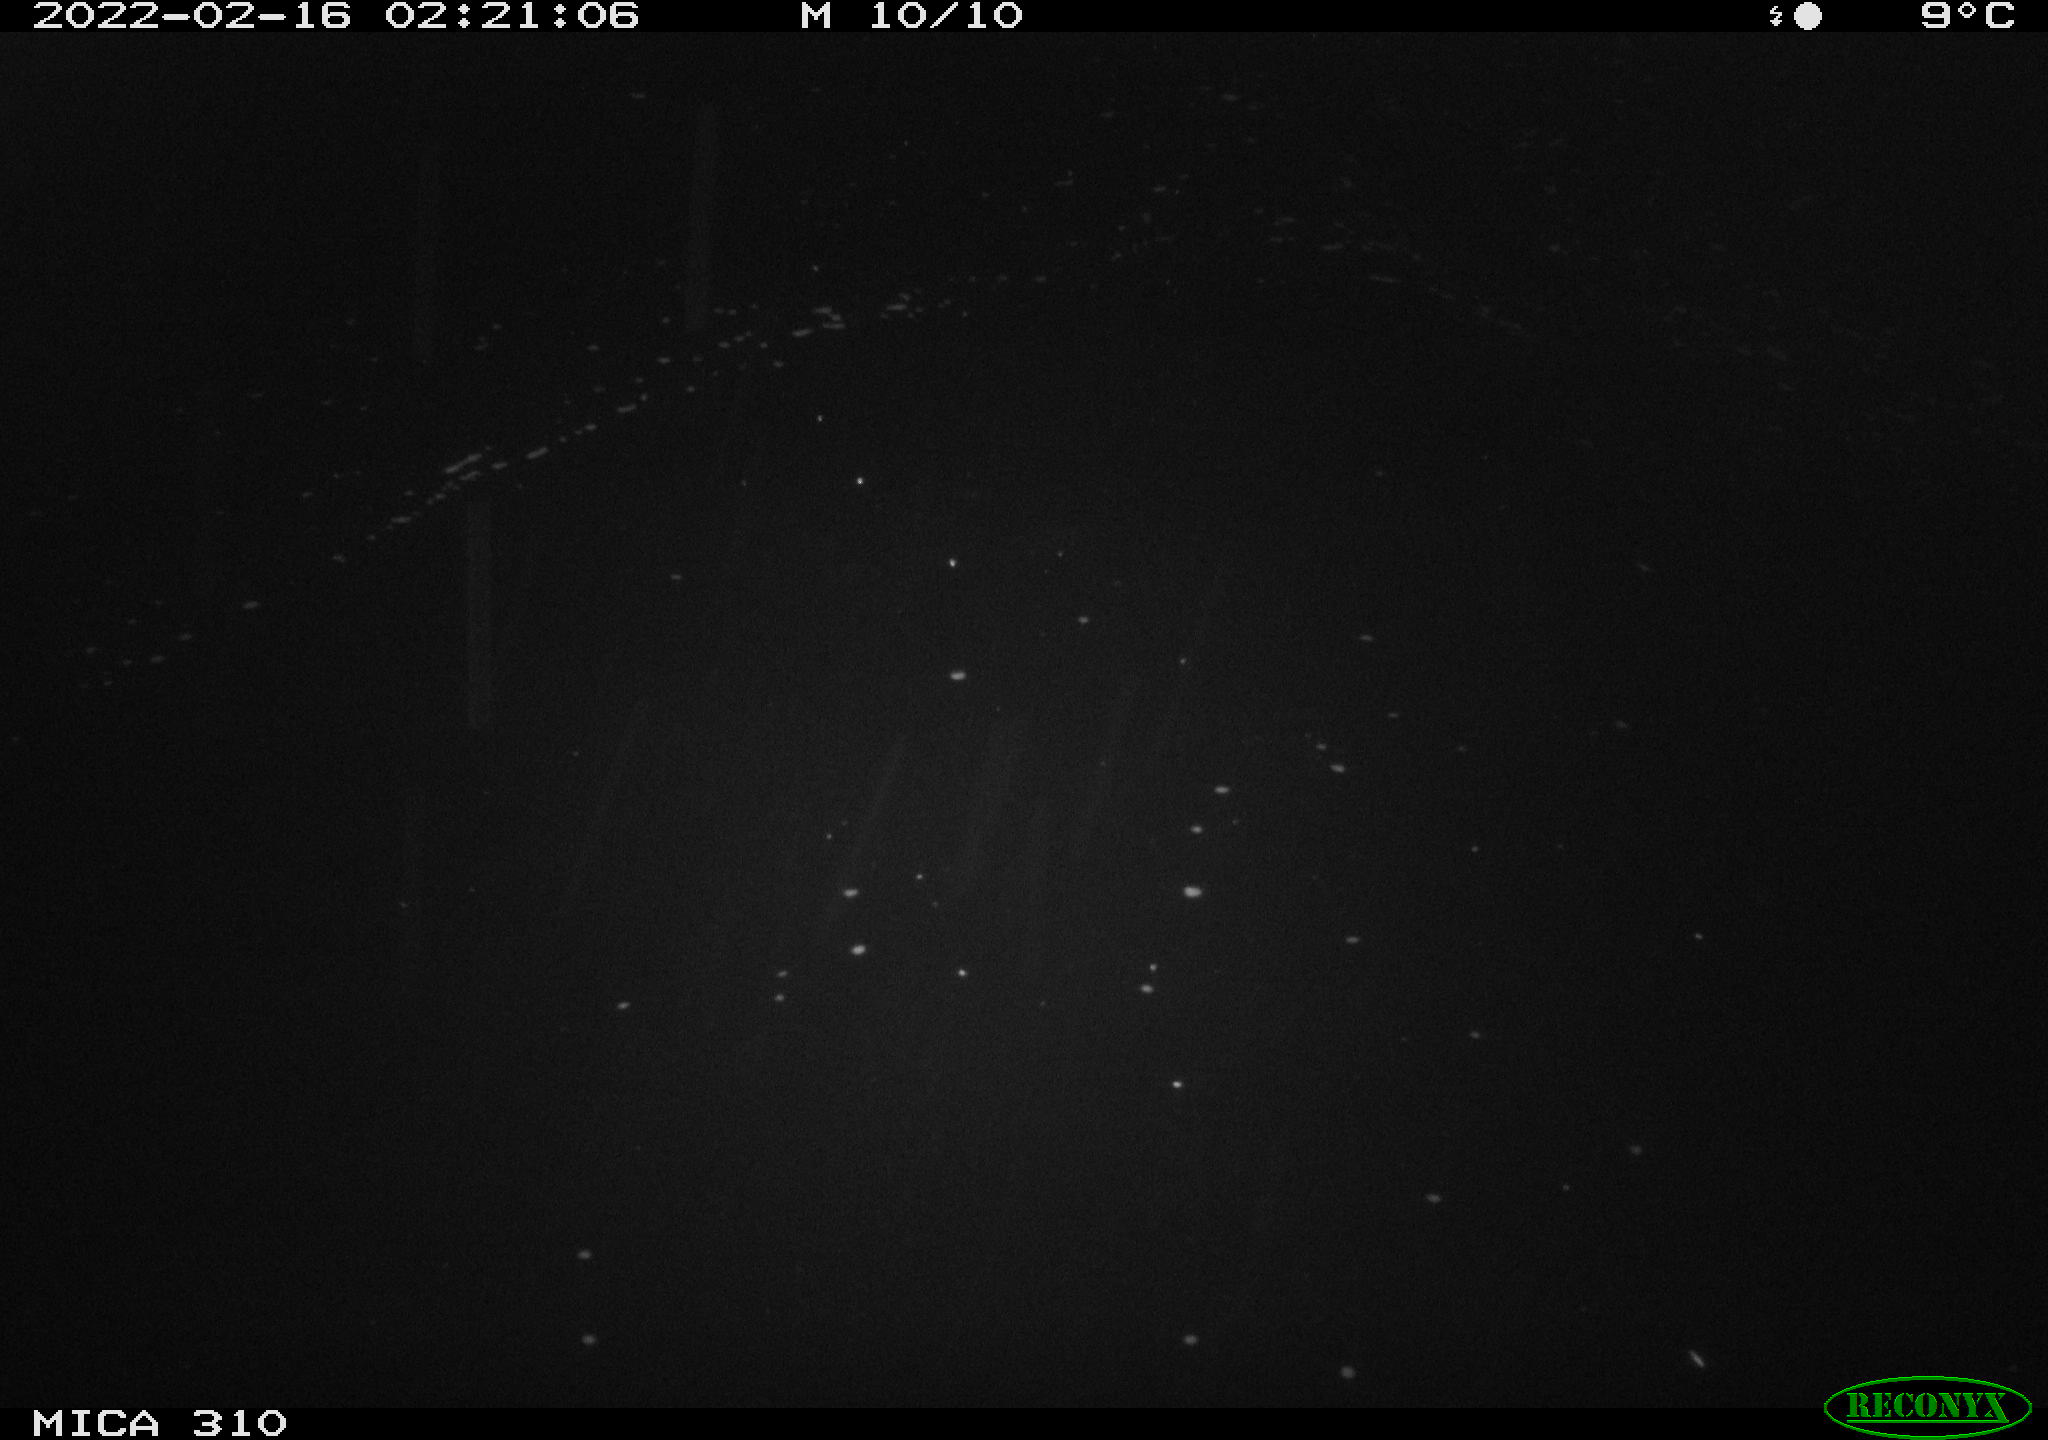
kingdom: Animalia
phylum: Chordata
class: Mammalia
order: Rodentia
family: Cricetidae
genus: Ondatra
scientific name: Ondatra zibethicus
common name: Muskrat
